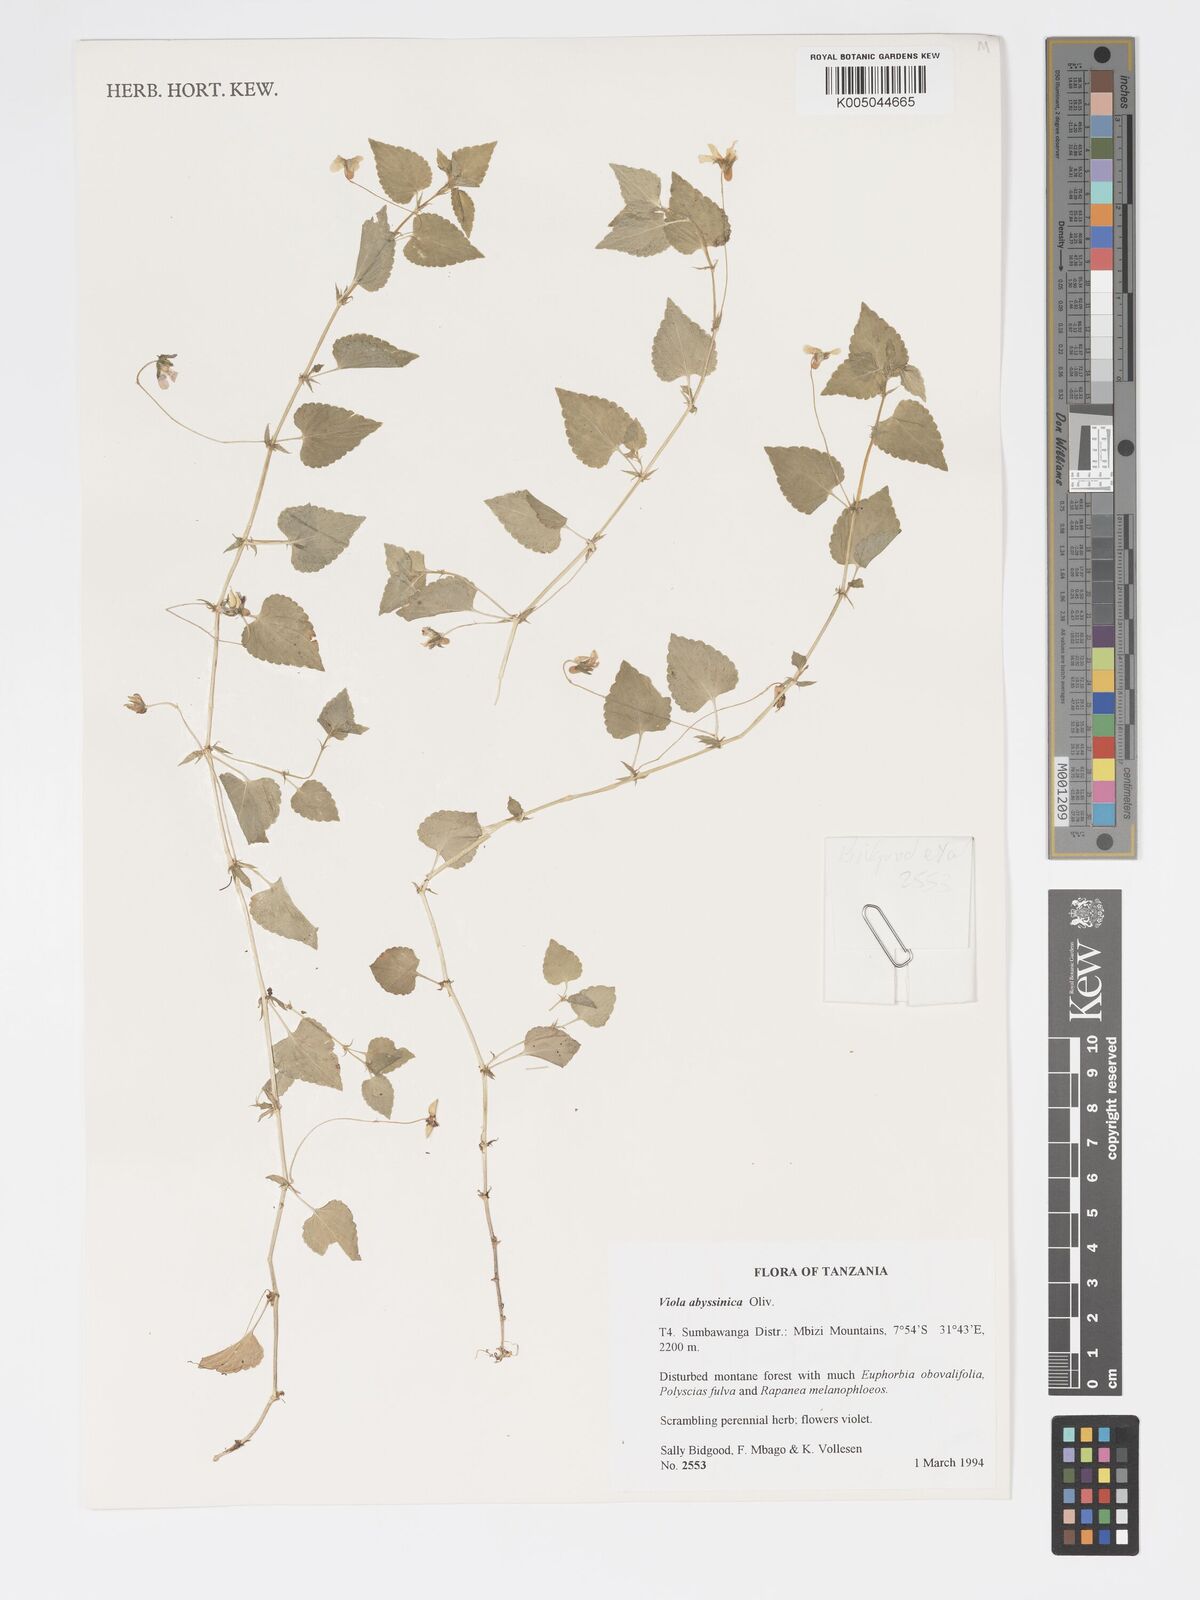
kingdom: Plantae
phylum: Tracheophyta
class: Magnoliopsida
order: Malpighiales
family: Violaceae
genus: Viola
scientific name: Viola abyssinica
